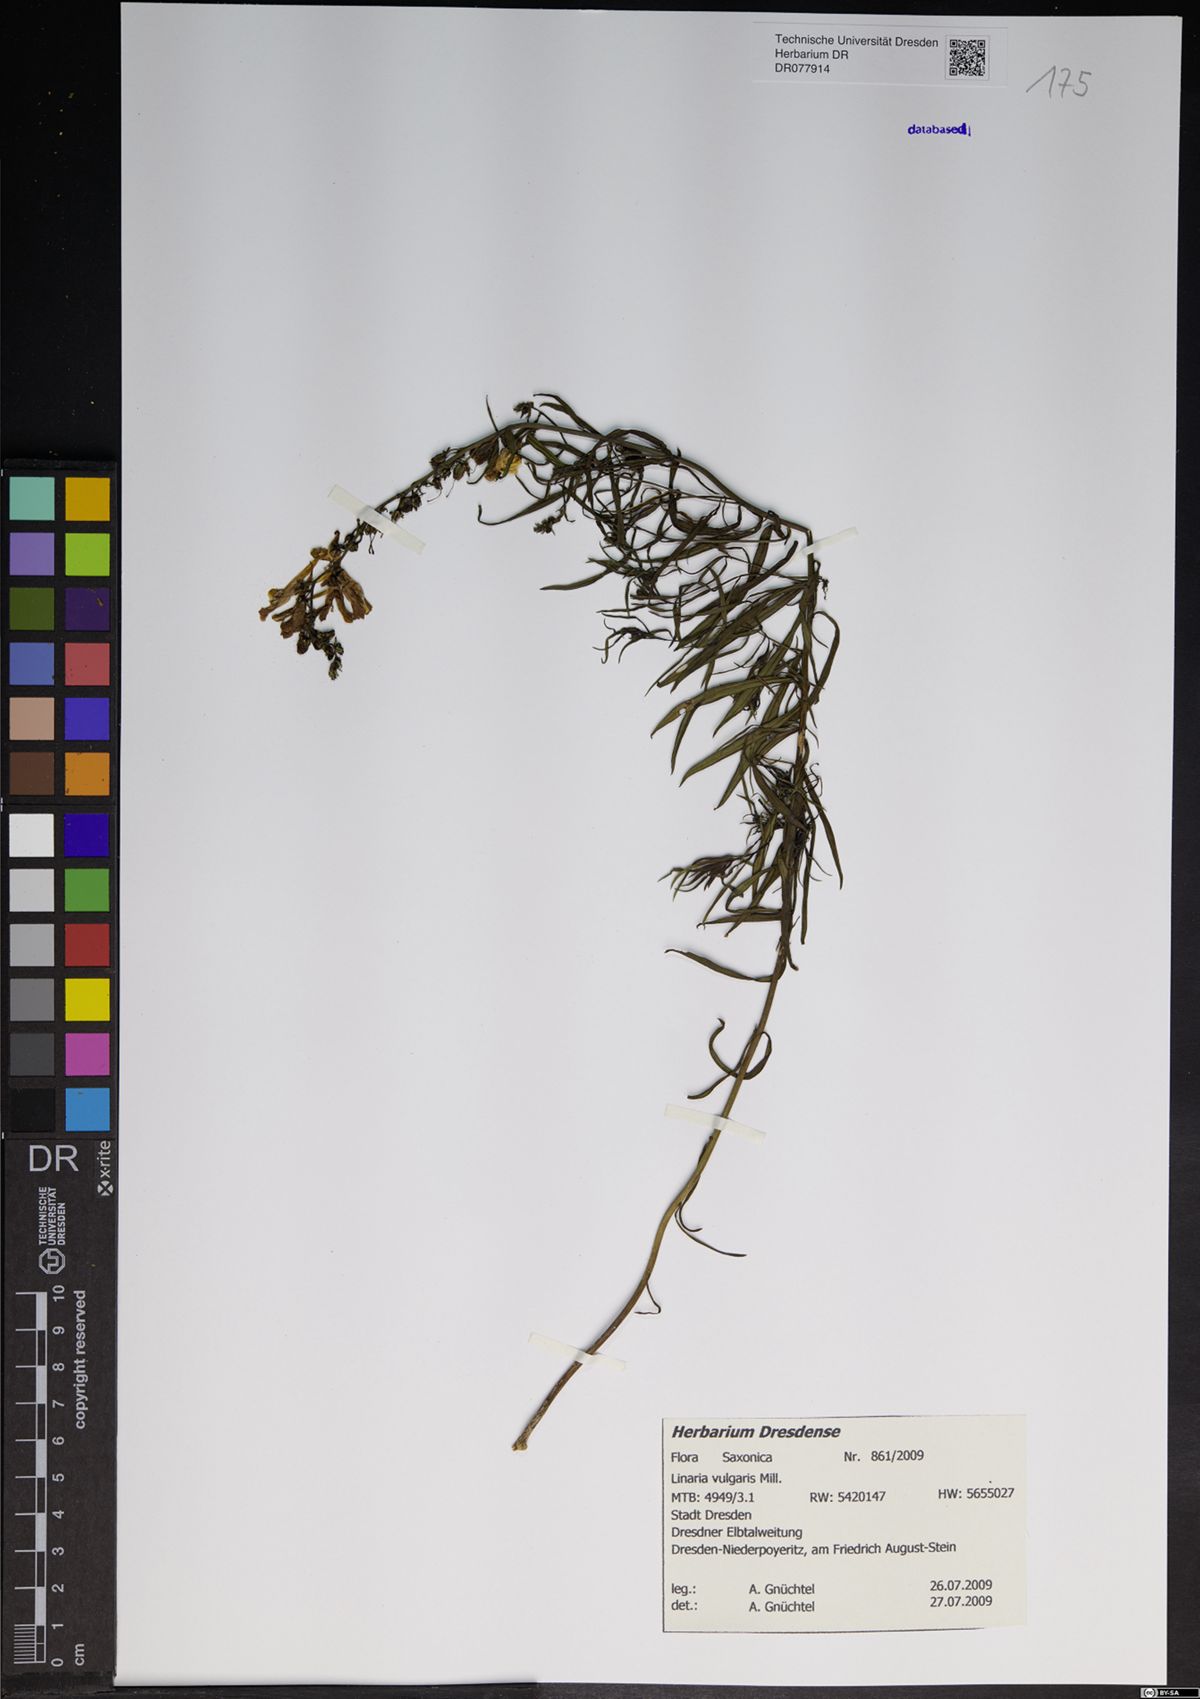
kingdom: Plantae
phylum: Tracheophyta
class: Magnoliopsida
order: Lamiales
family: Plantaginaceae
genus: Linaria
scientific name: Linaria vulgaris
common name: Butter and eggs
